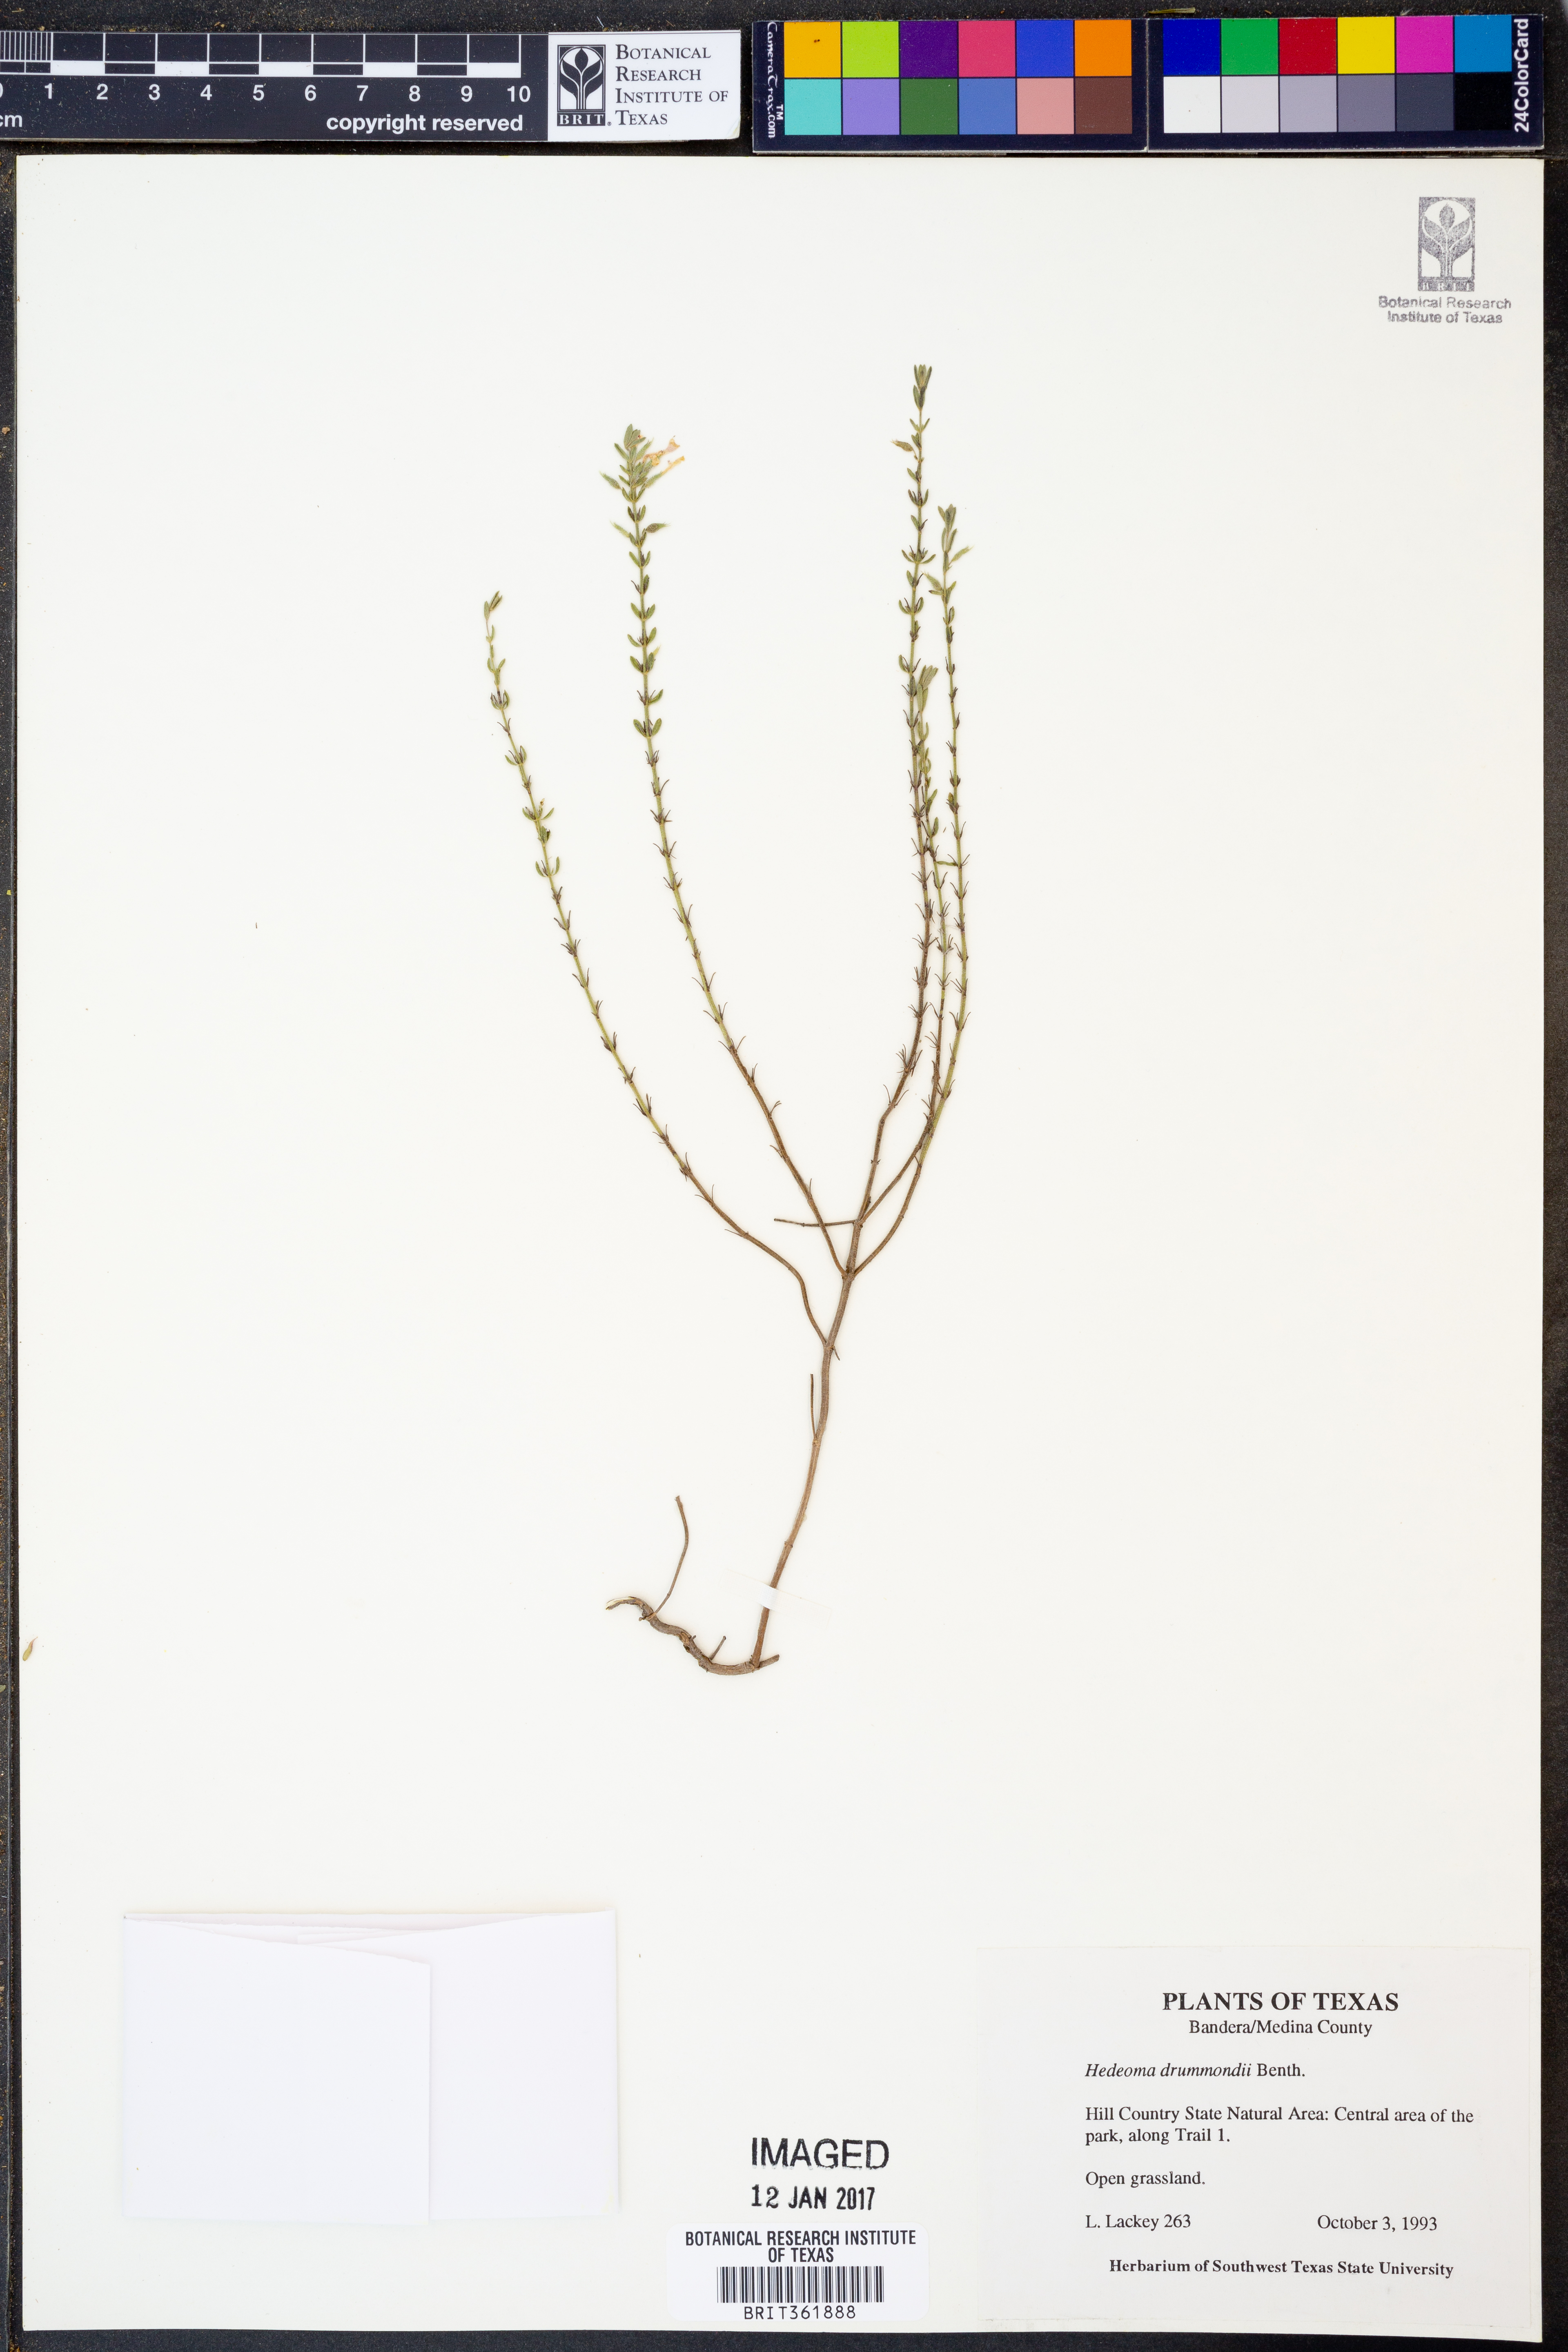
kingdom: Plantae
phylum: Tracheophyta
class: Magnoliopsida
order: Lamiales
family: Lamiaceae
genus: Hedeoma
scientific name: Hedeoma drummondii
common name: New mexico pennyroyal
